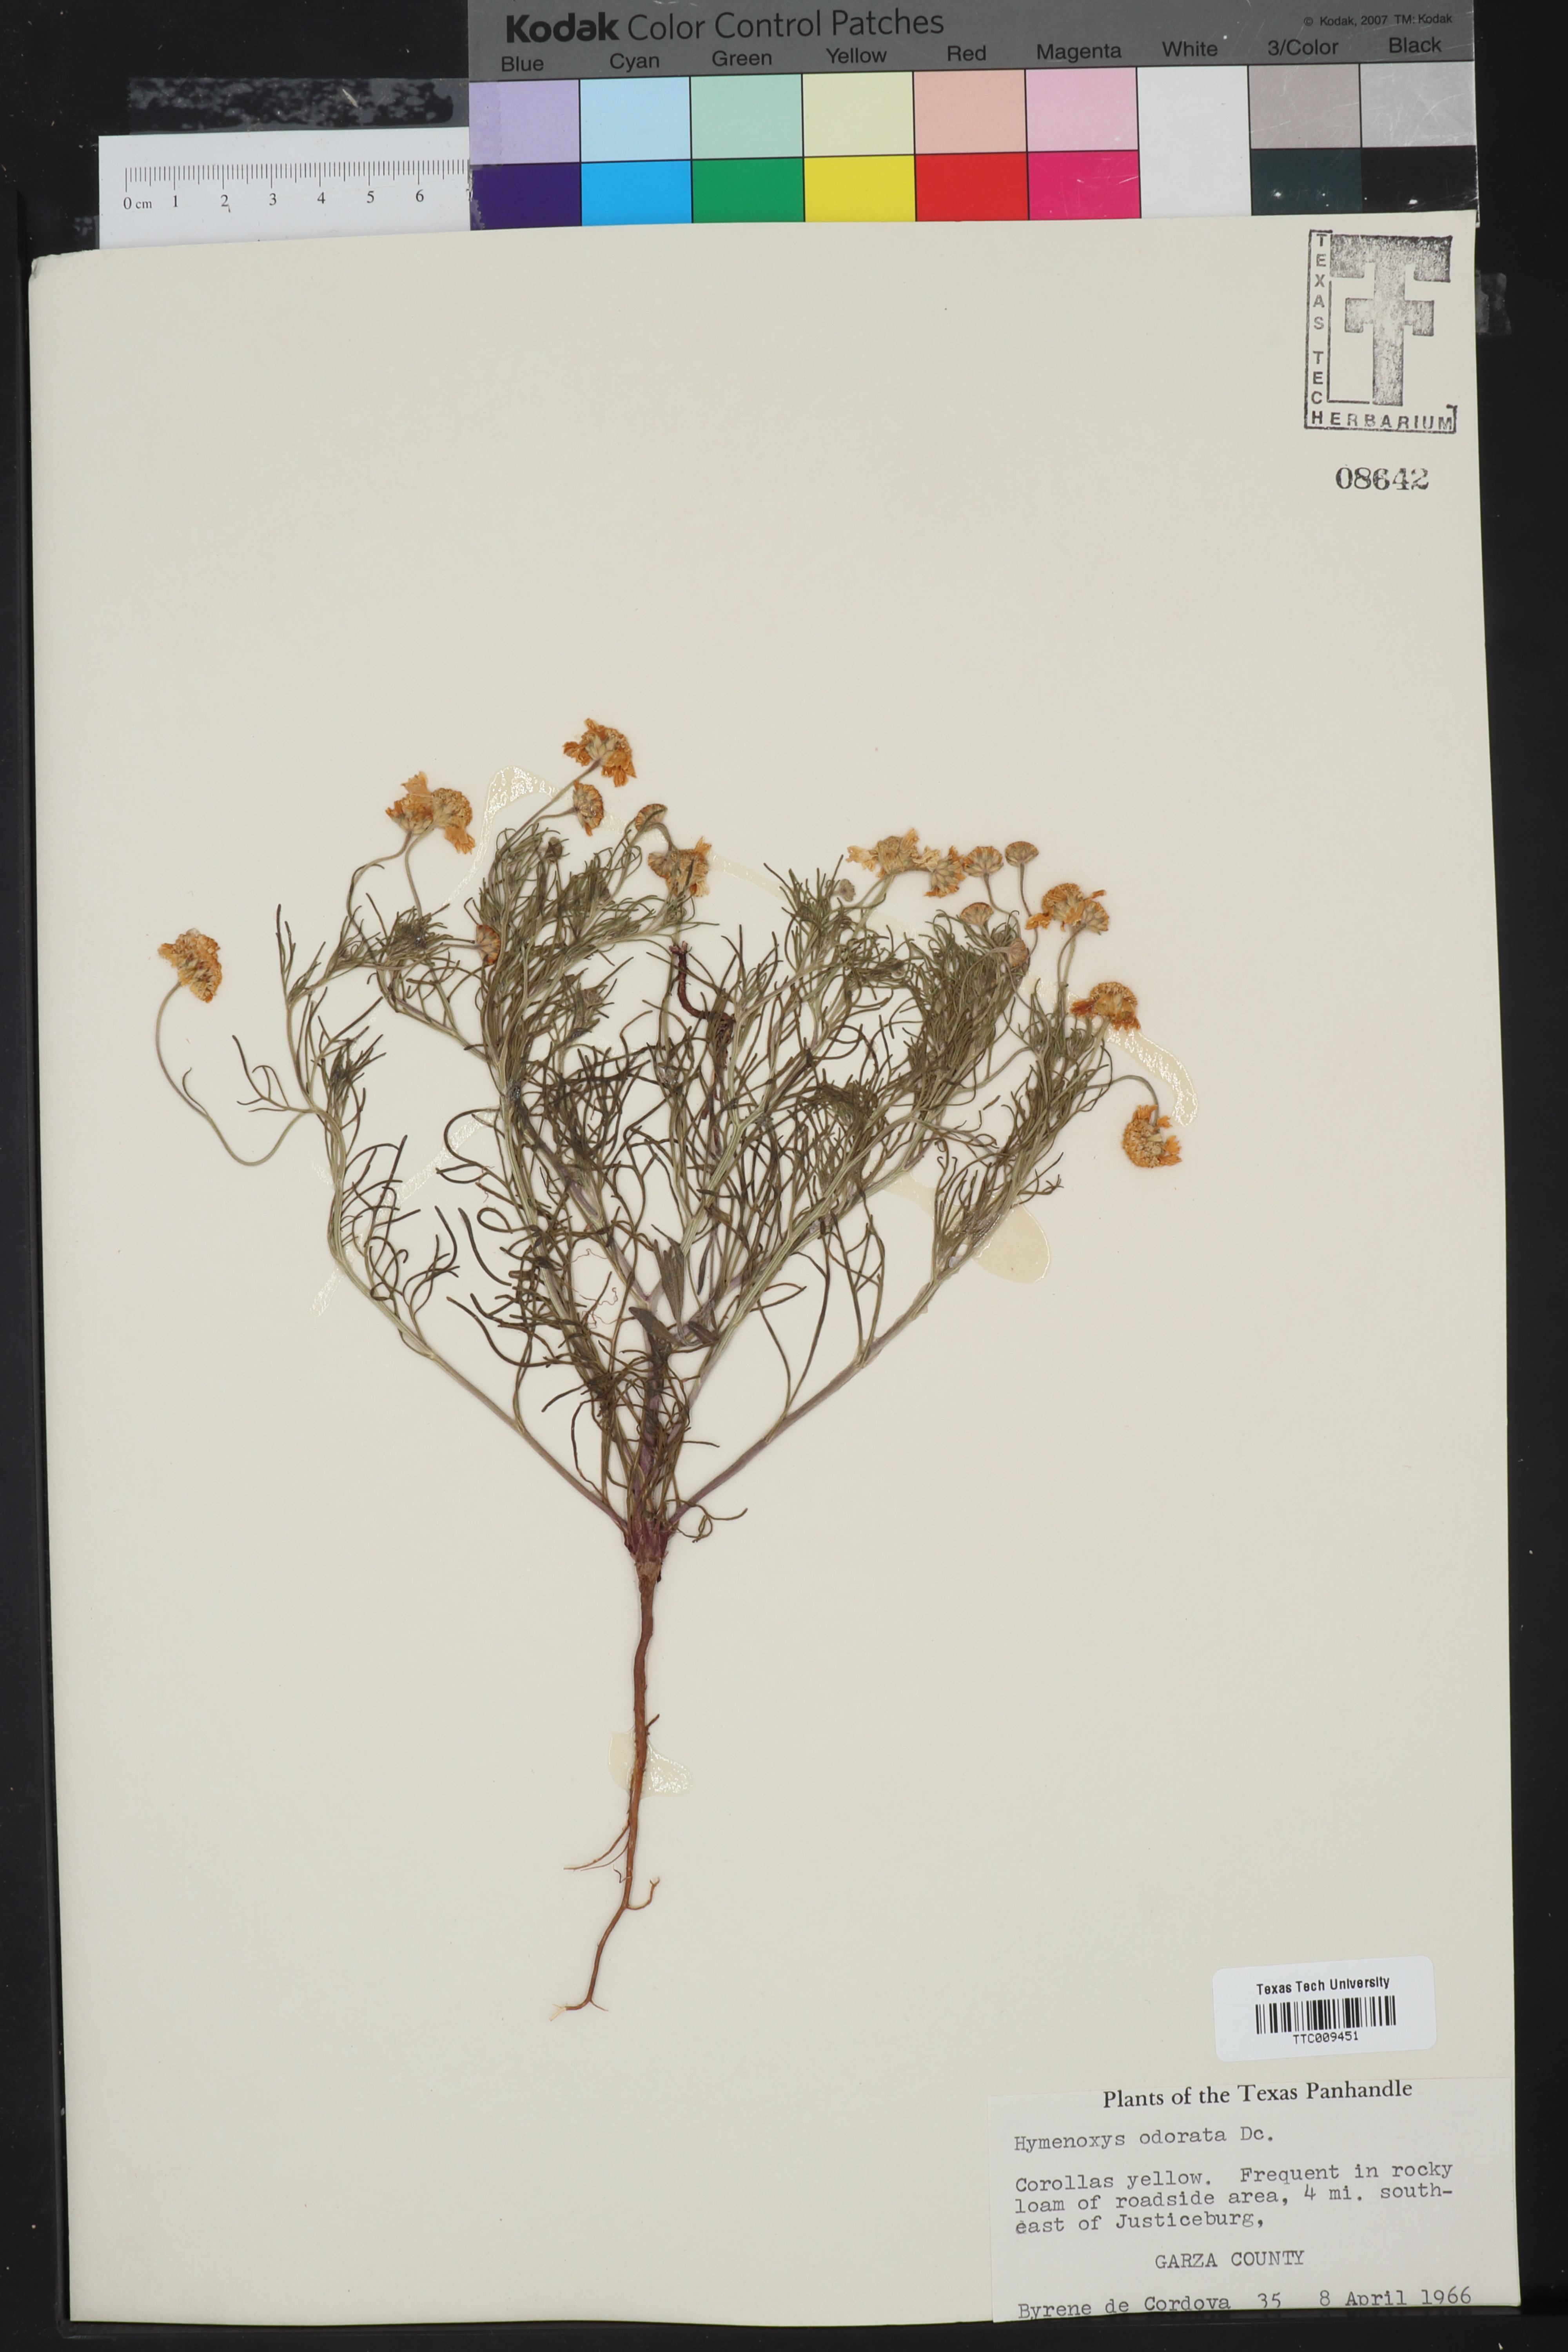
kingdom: Plantae
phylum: Tracheophyta
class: Magnoliopsida
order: Asterales
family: Asteraceae
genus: Hymenoxys
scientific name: Hymenoxys odorata
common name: Bitter rubberweed
